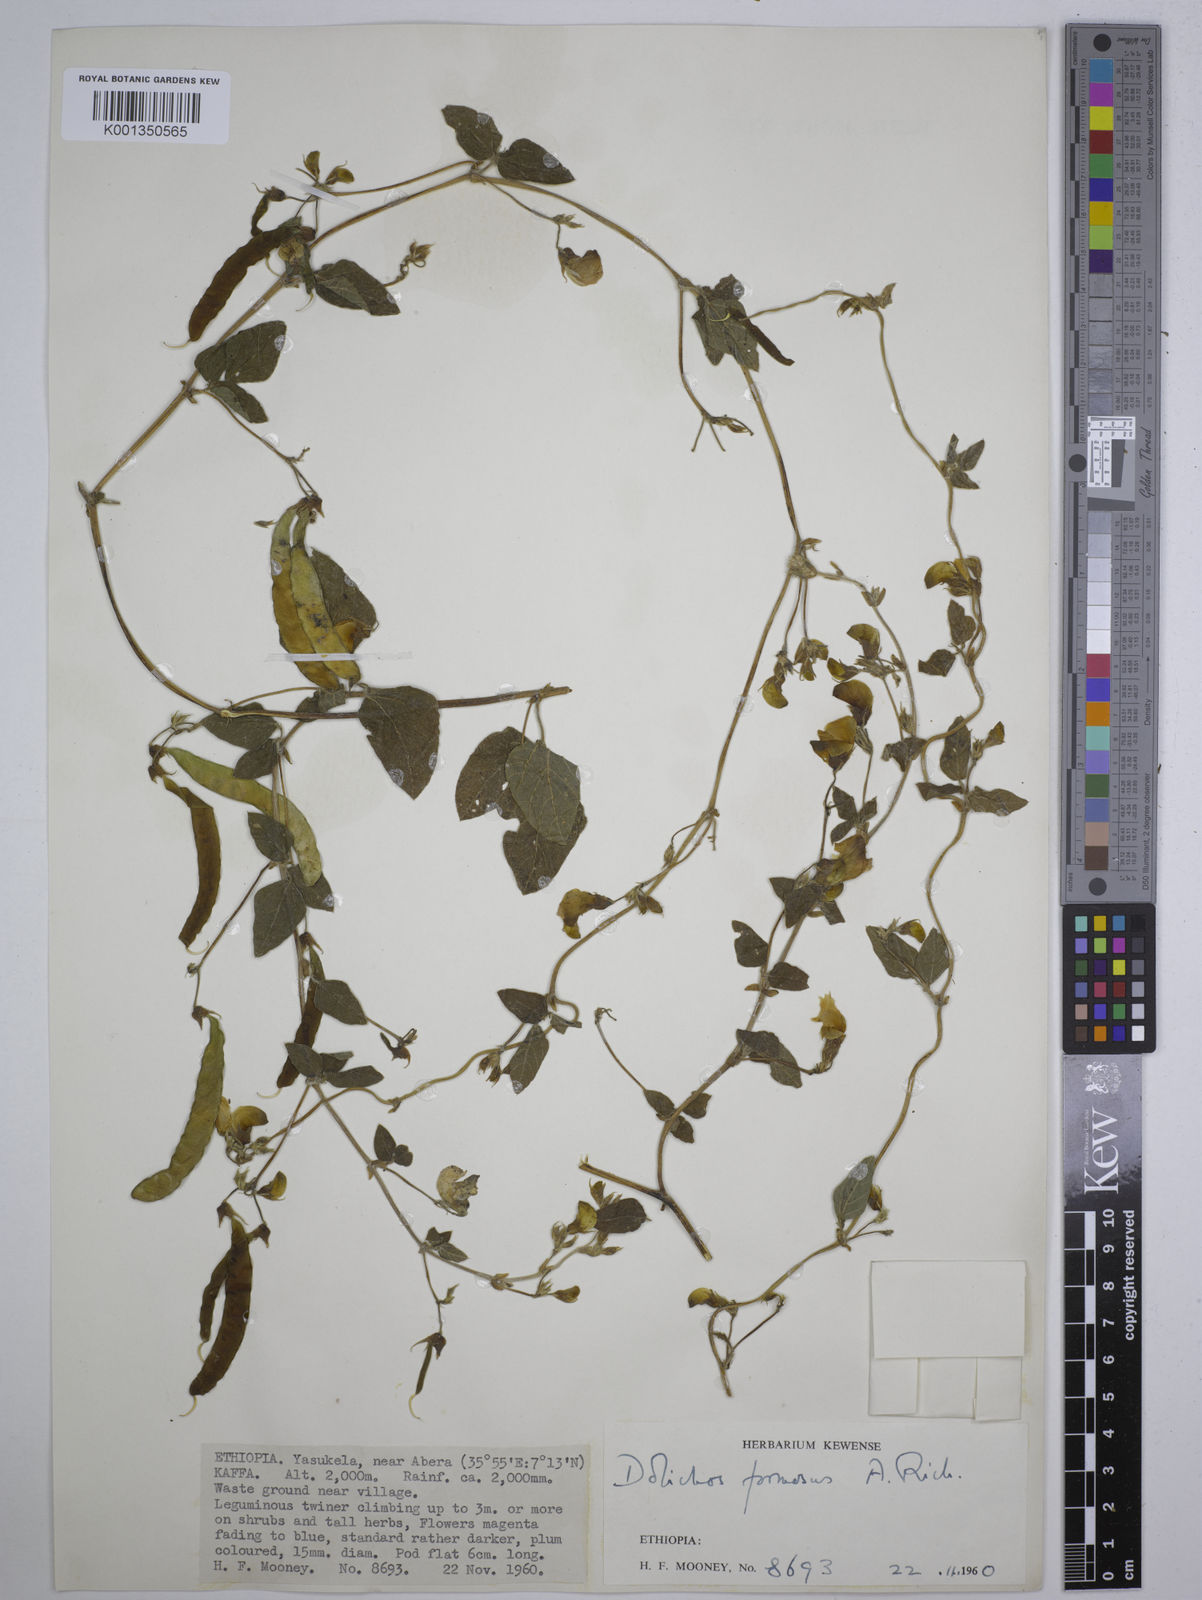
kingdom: Plantae
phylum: Tracheophyta
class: Magnoliopsida
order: Fabales
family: Fabaceae
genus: Dolichos
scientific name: Dolichos
